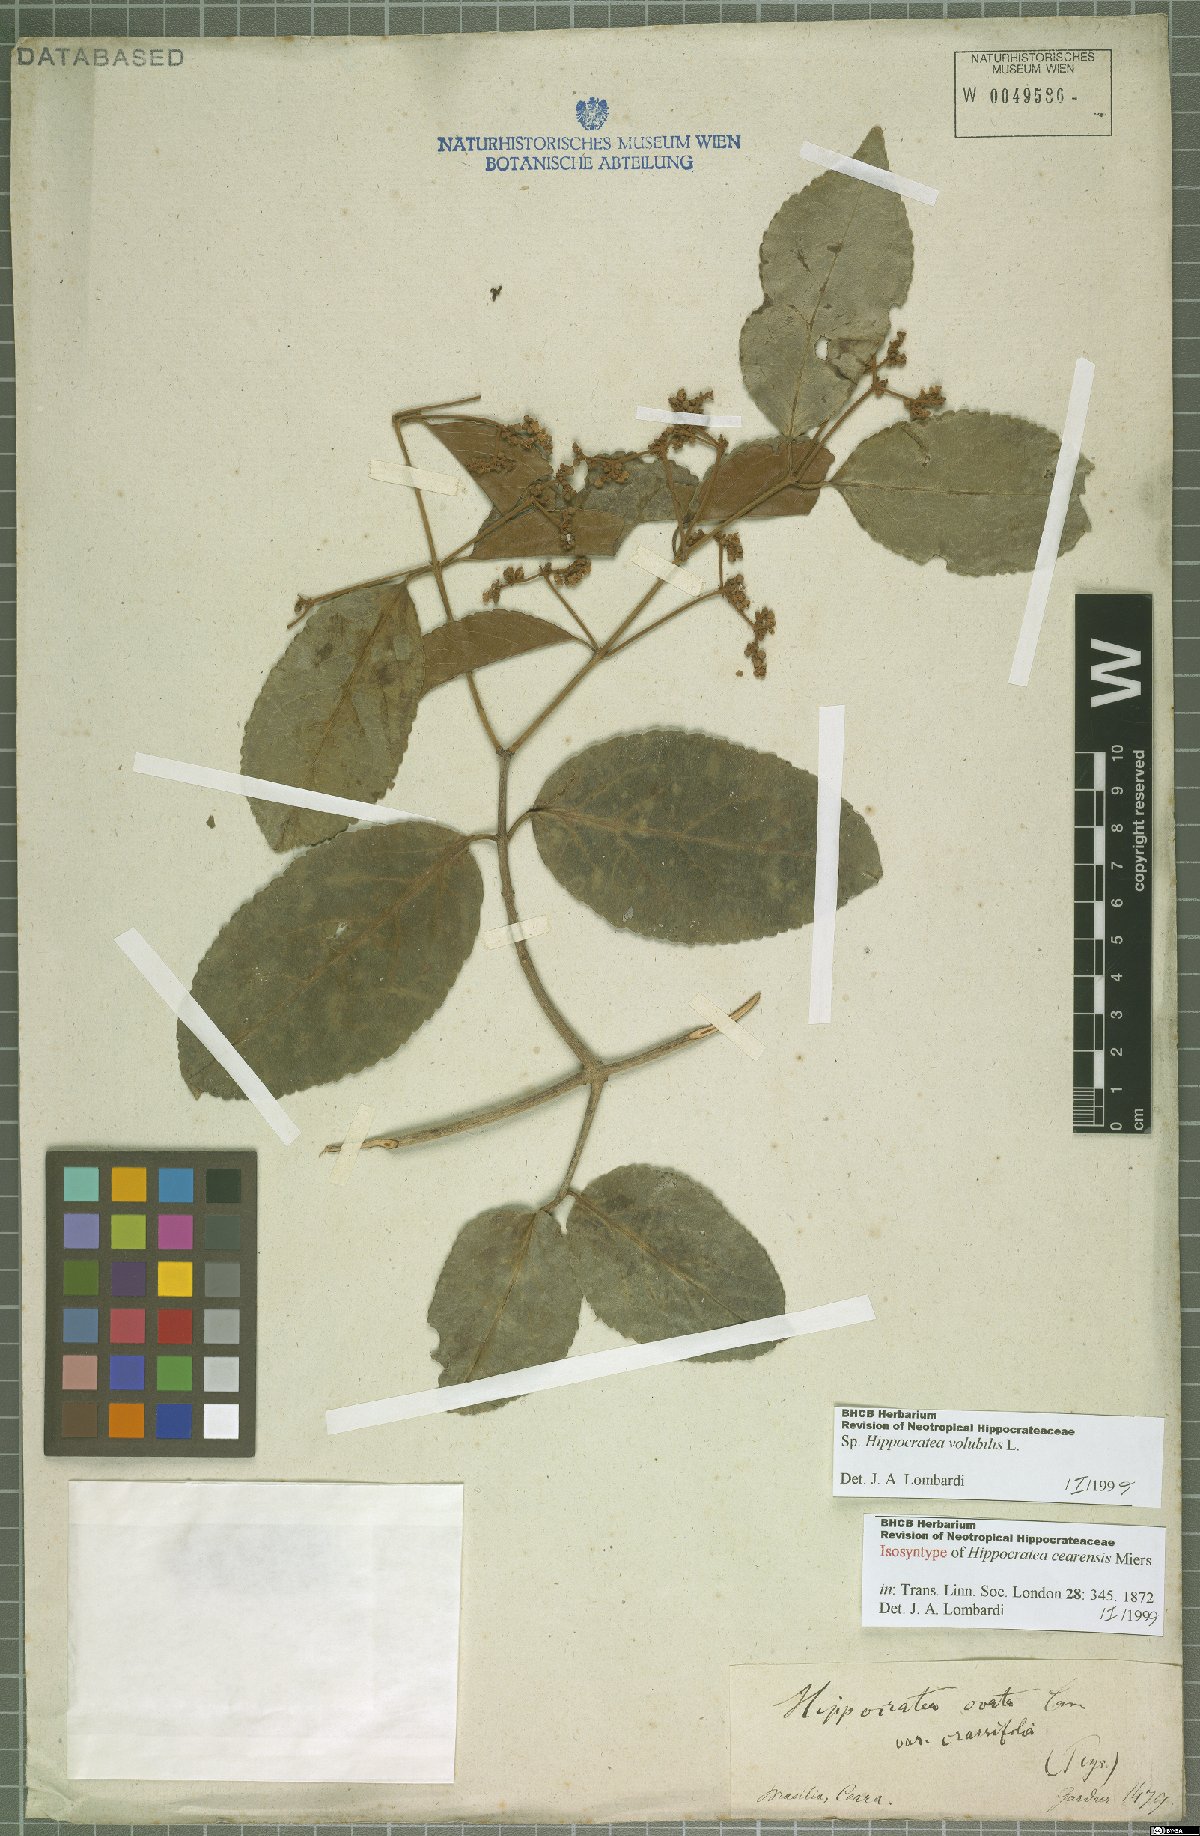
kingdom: Plantae
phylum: Tracheophyta
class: Magnoliopsida
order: Celastrales
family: Celastraceae
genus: Hippocratea
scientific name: Hippocratea volubilis
